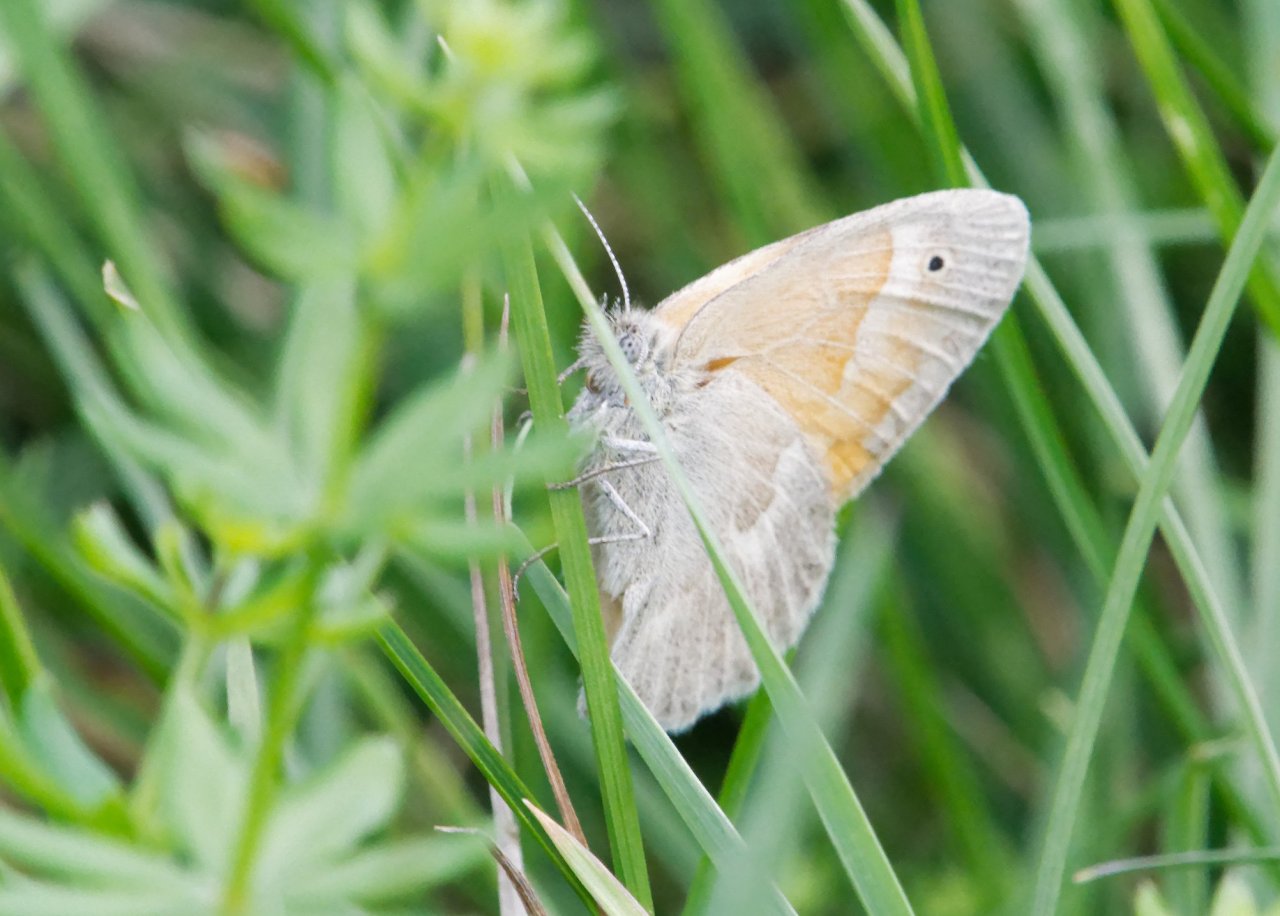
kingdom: Animalia
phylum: Arthropoda
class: Insecta
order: Lepidoptera
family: Nymphalidae
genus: Coenonympha
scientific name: Coenonympha tullia
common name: Large Heath
